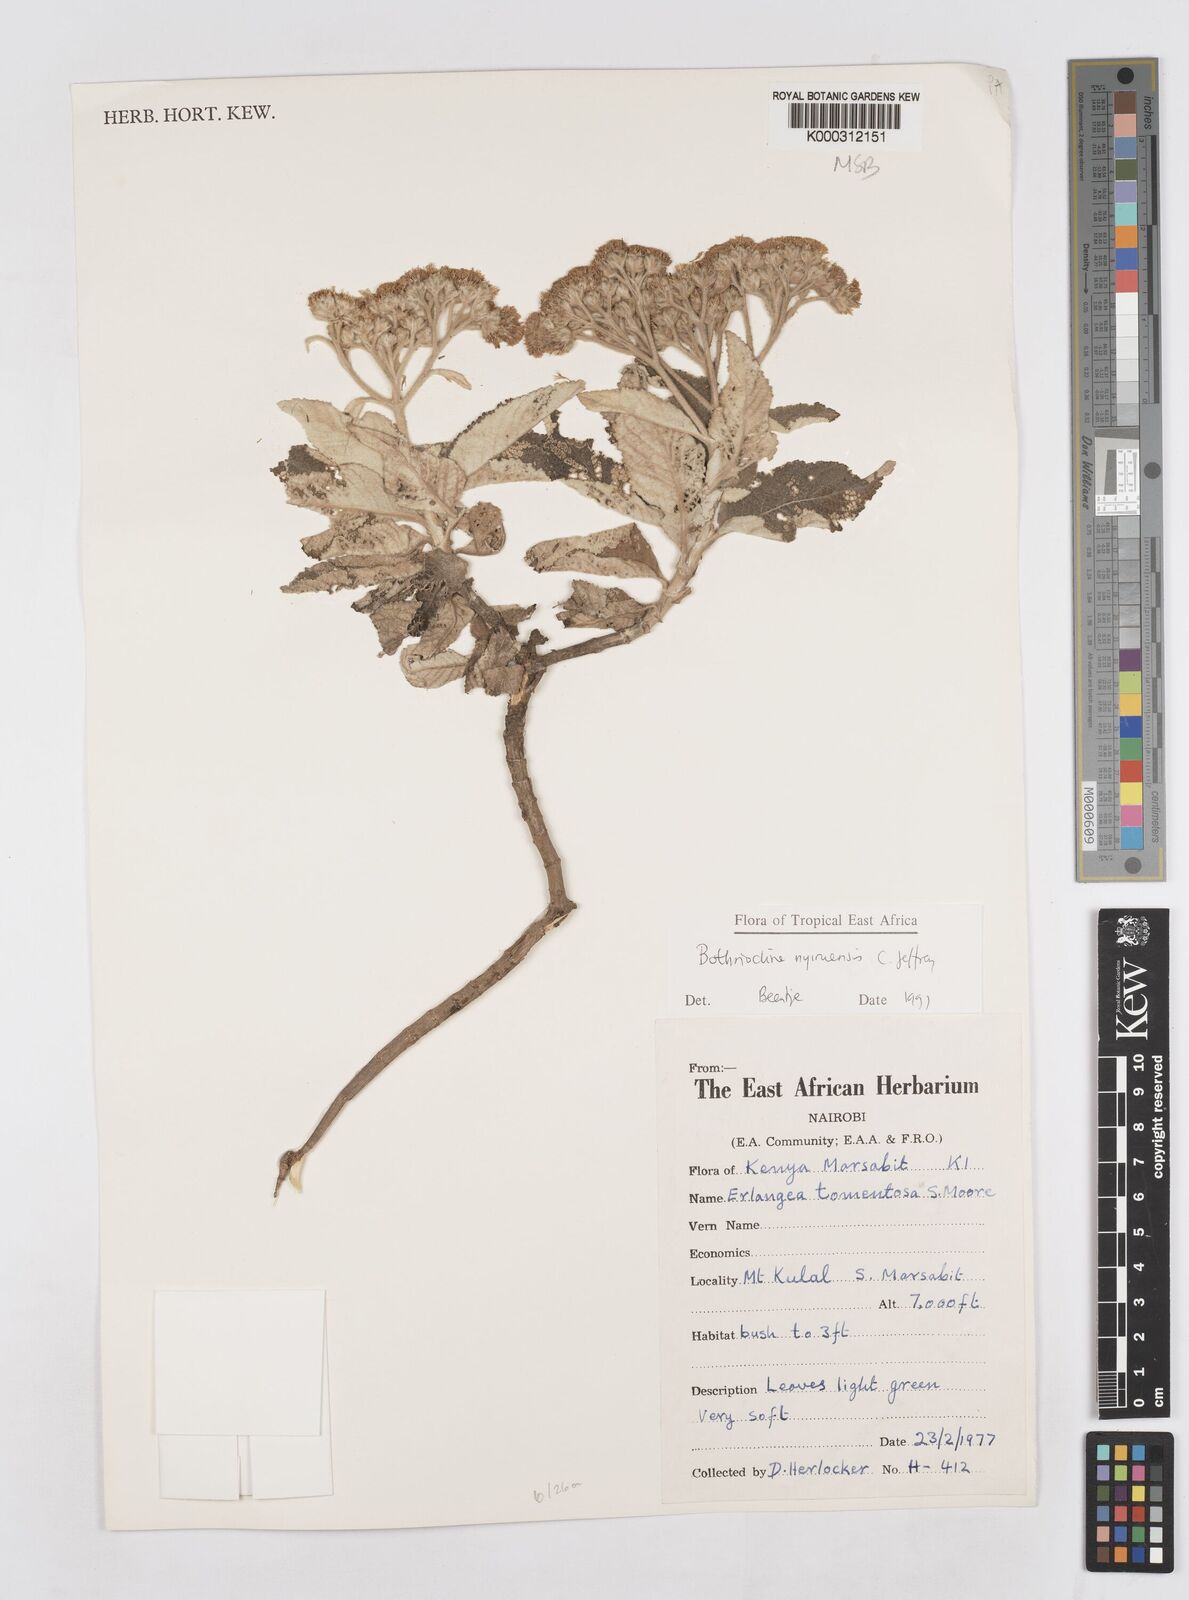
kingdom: Plantae
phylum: Tracheophyta
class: Magnoliopsida
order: Asterales
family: Asteraceae
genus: Bothriocline
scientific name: Bothriocline nyiruensis
